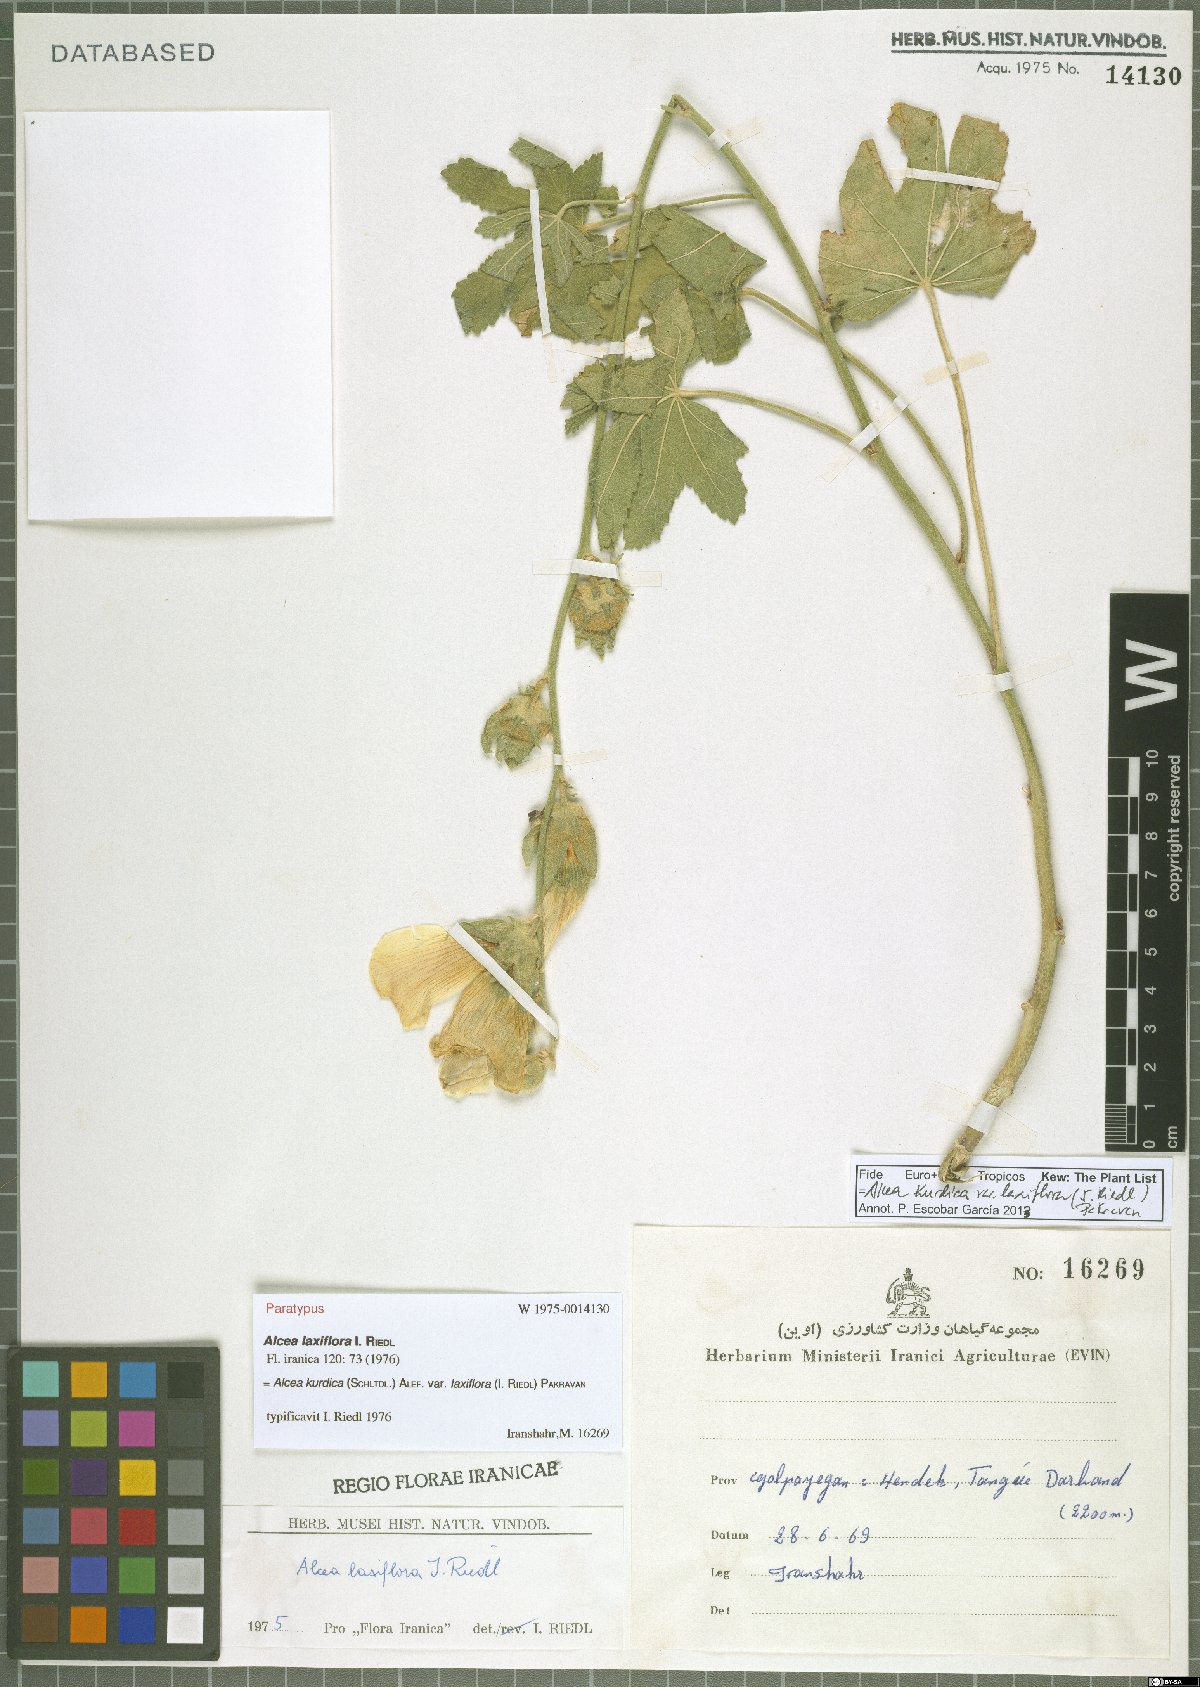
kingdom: Plantae
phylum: Tracheophyta
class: Magnoliopsida
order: Malvales
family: Malvaceae
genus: Alcea
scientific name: Alcea kurdica
